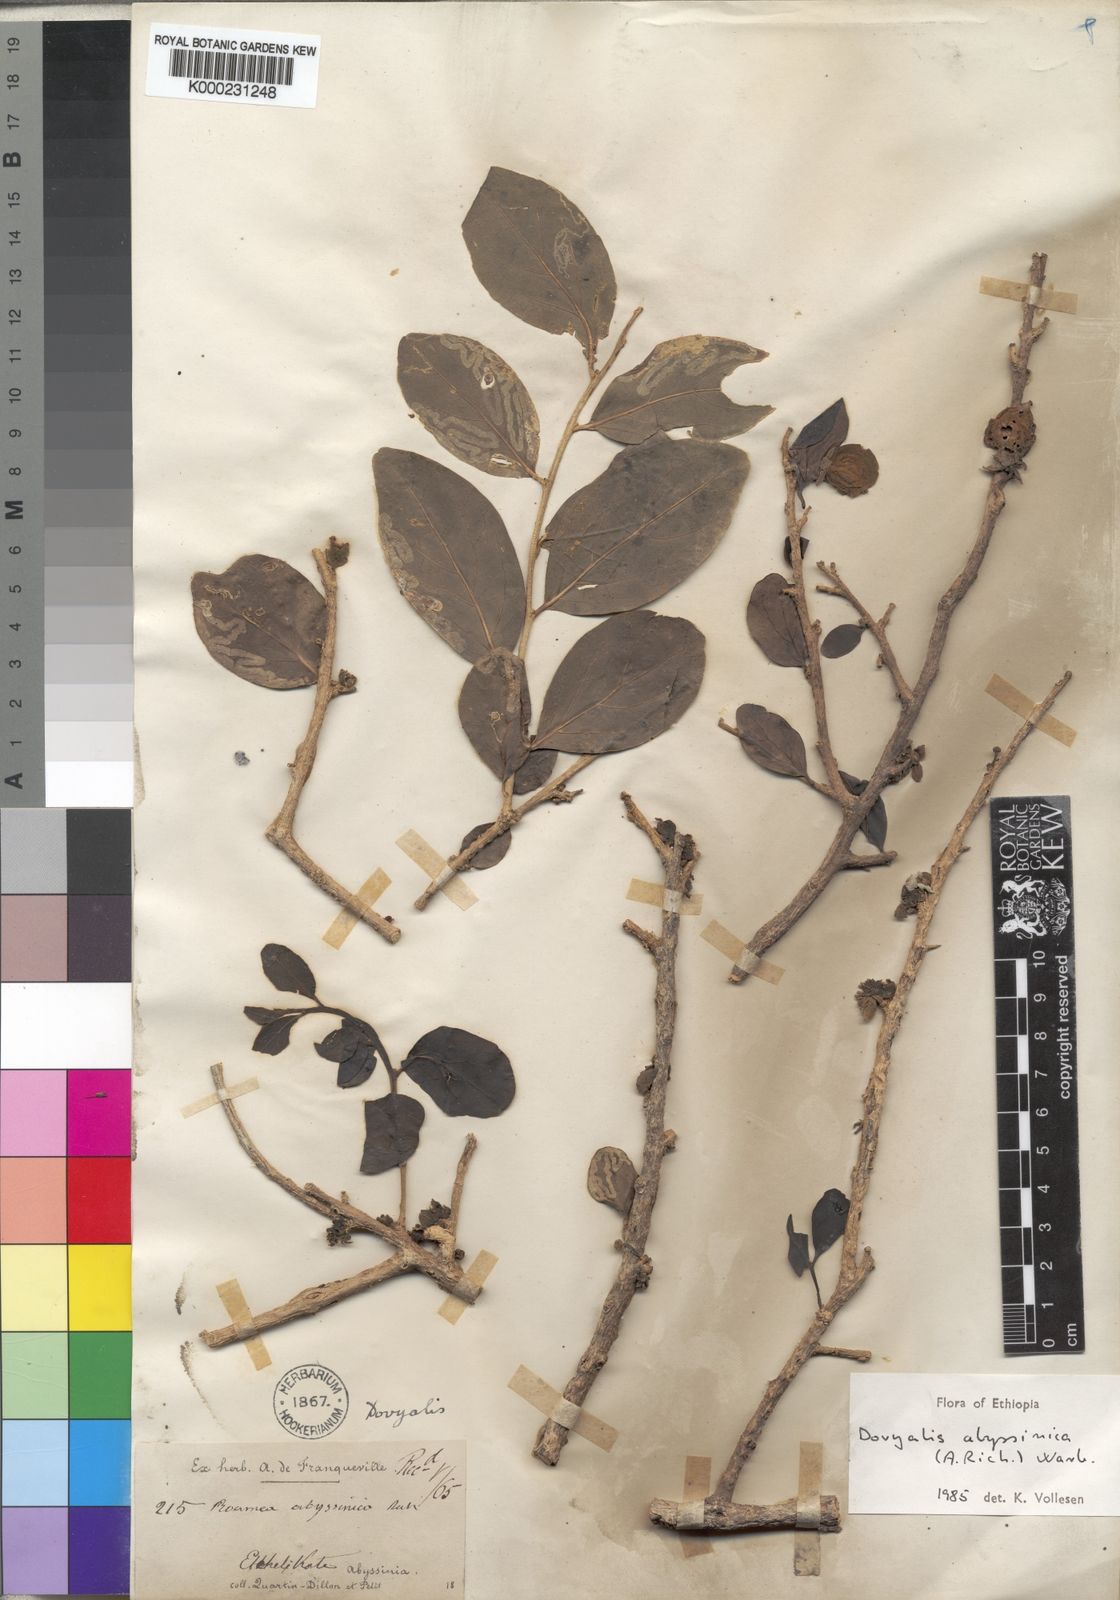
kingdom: Plantae
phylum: Tracheophyta
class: Magnoliopsida
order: Malpighiales
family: Salicaceae
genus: Dovyalis
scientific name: Dovyalis abyssinica
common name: Abyssinian-gooseberry
